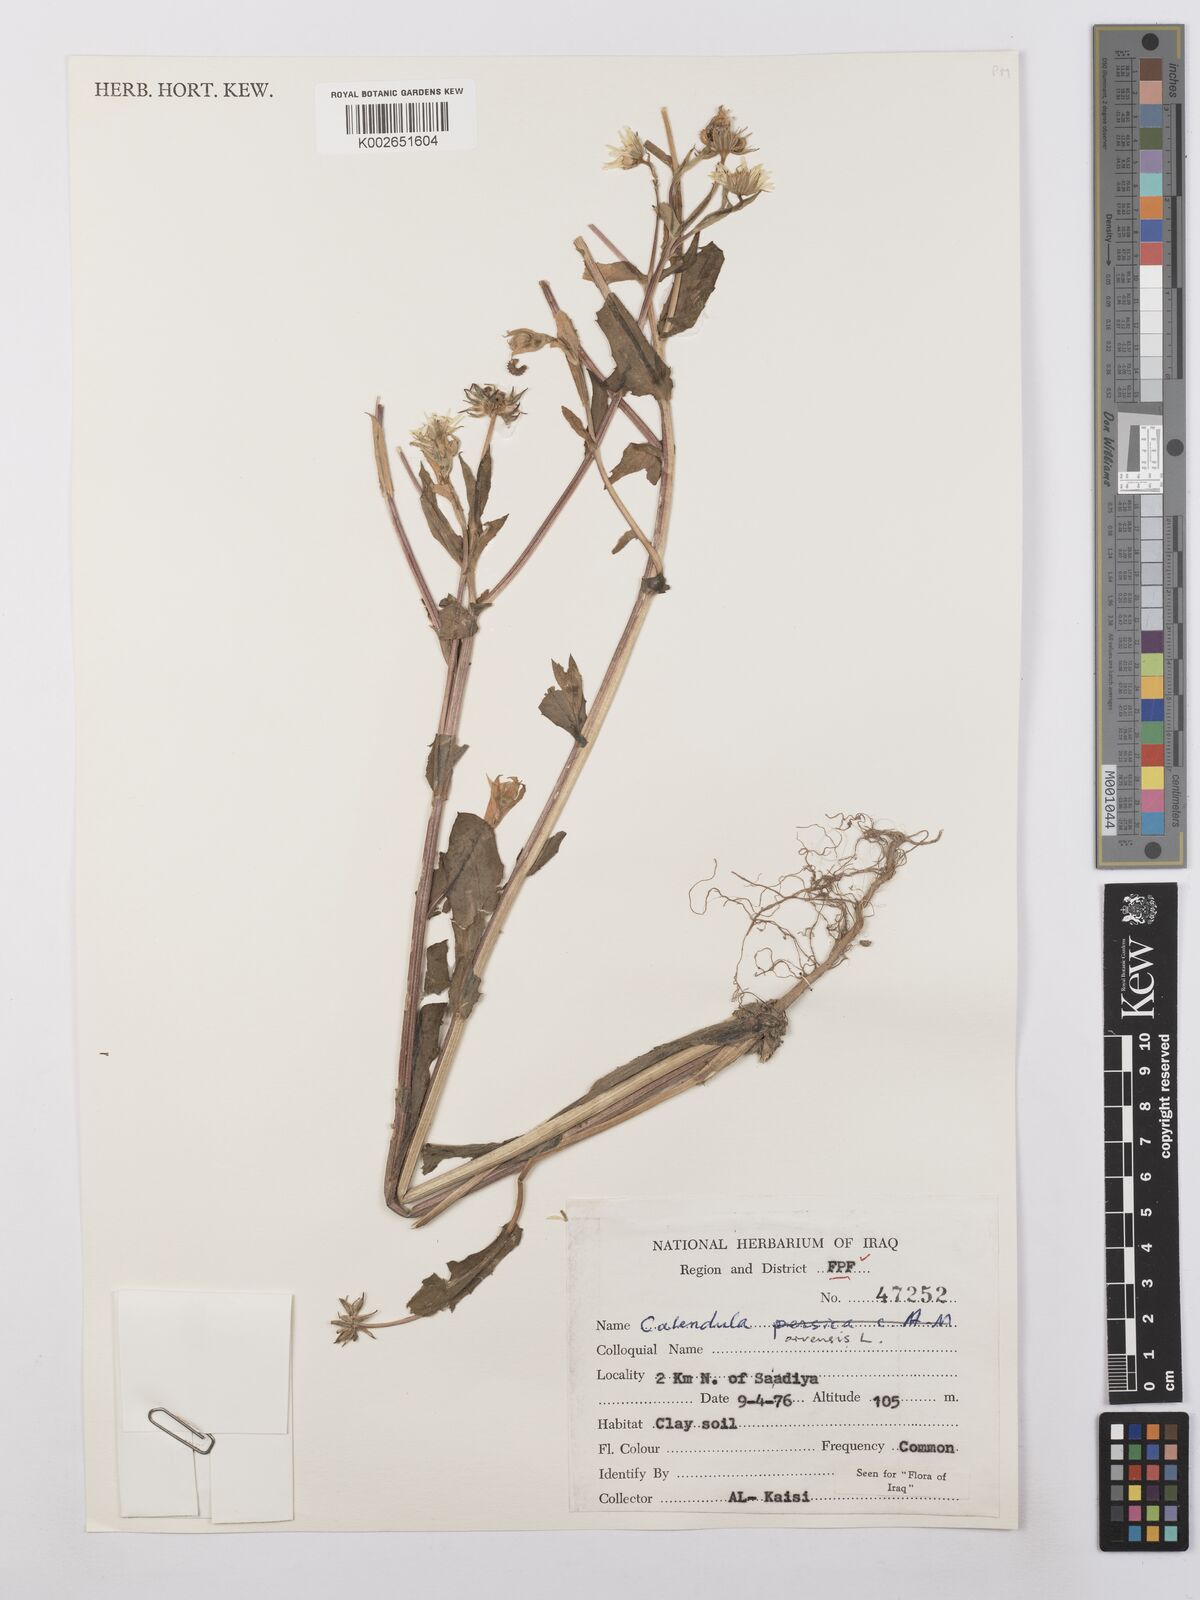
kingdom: Plantae
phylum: Tracheophyta
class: Magnoliopsida
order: Asterales
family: Asteraceae
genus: Calendula
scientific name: Calendula arvensis
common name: Field marigold
